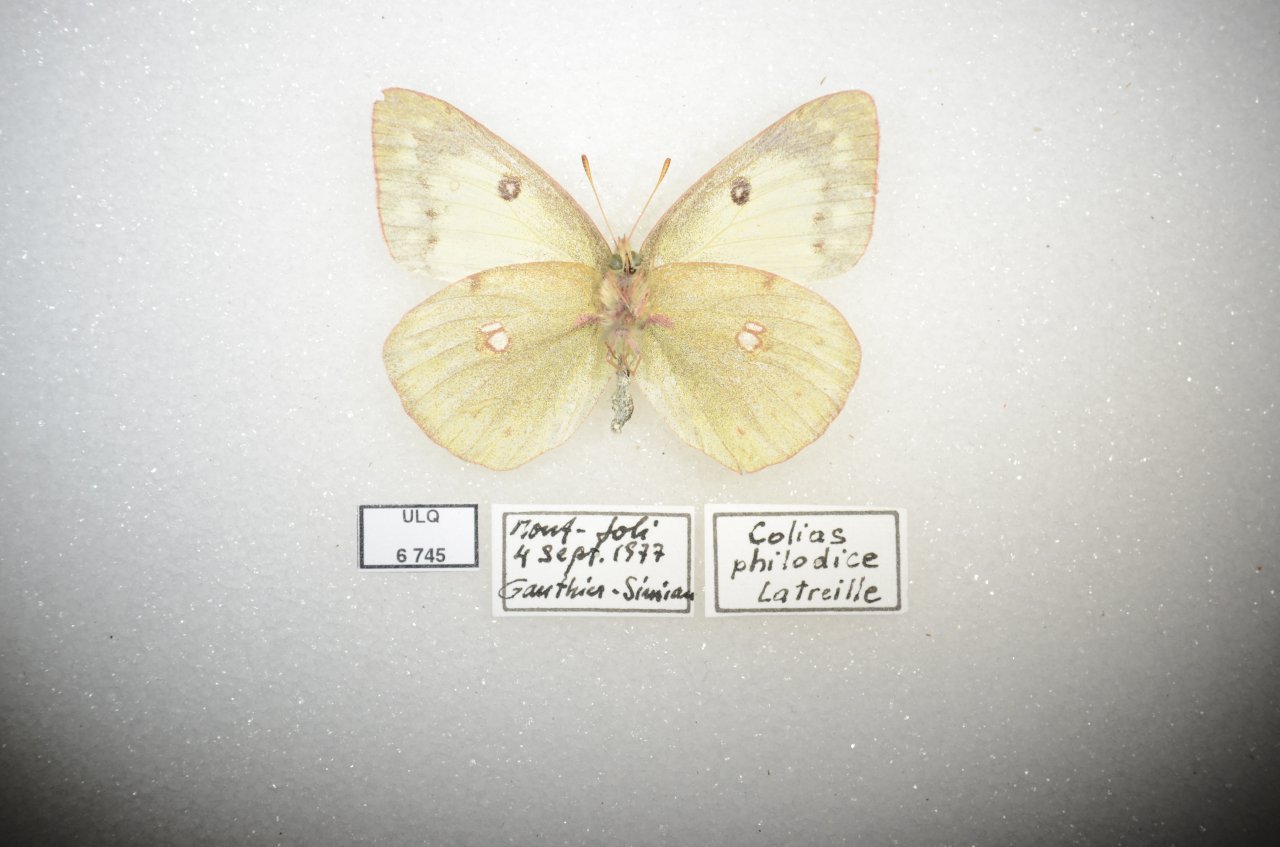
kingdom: Animalia
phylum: Arthropoda
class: Insecta
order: Lepidoptera
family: Pieridae
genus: Colias
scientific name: Colias philodice
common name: Clouded Sulphur
